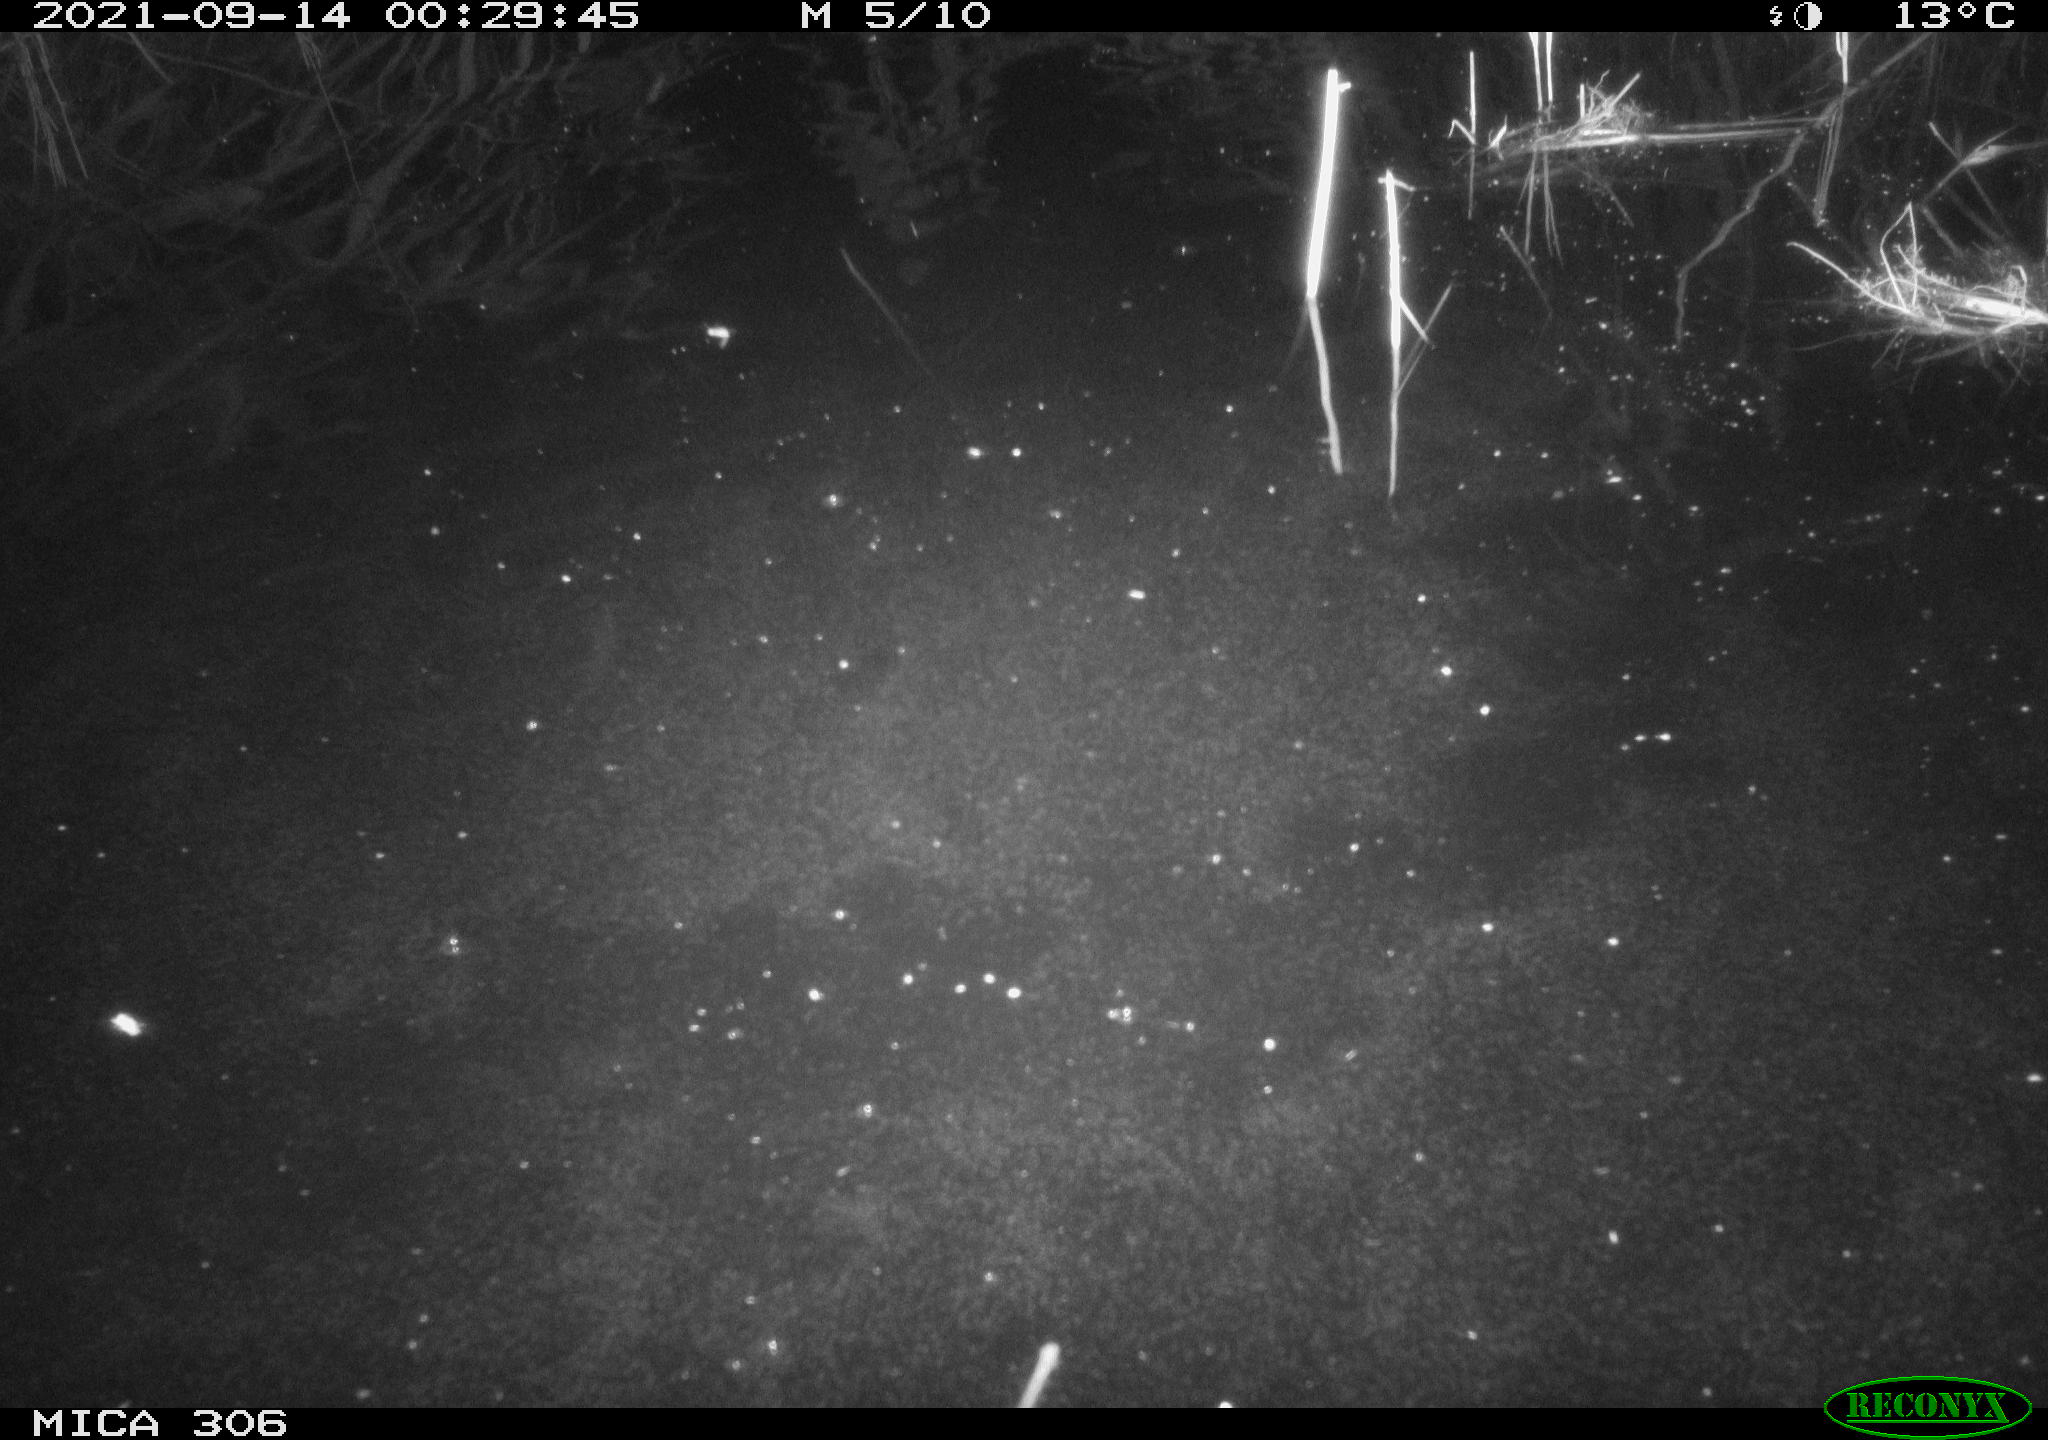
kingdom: Animalia
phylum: Chordata
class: Mammalia
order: Rodentia
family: Muridae
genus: Rattus
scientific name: Rattus norvegicus
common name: Brown rat
